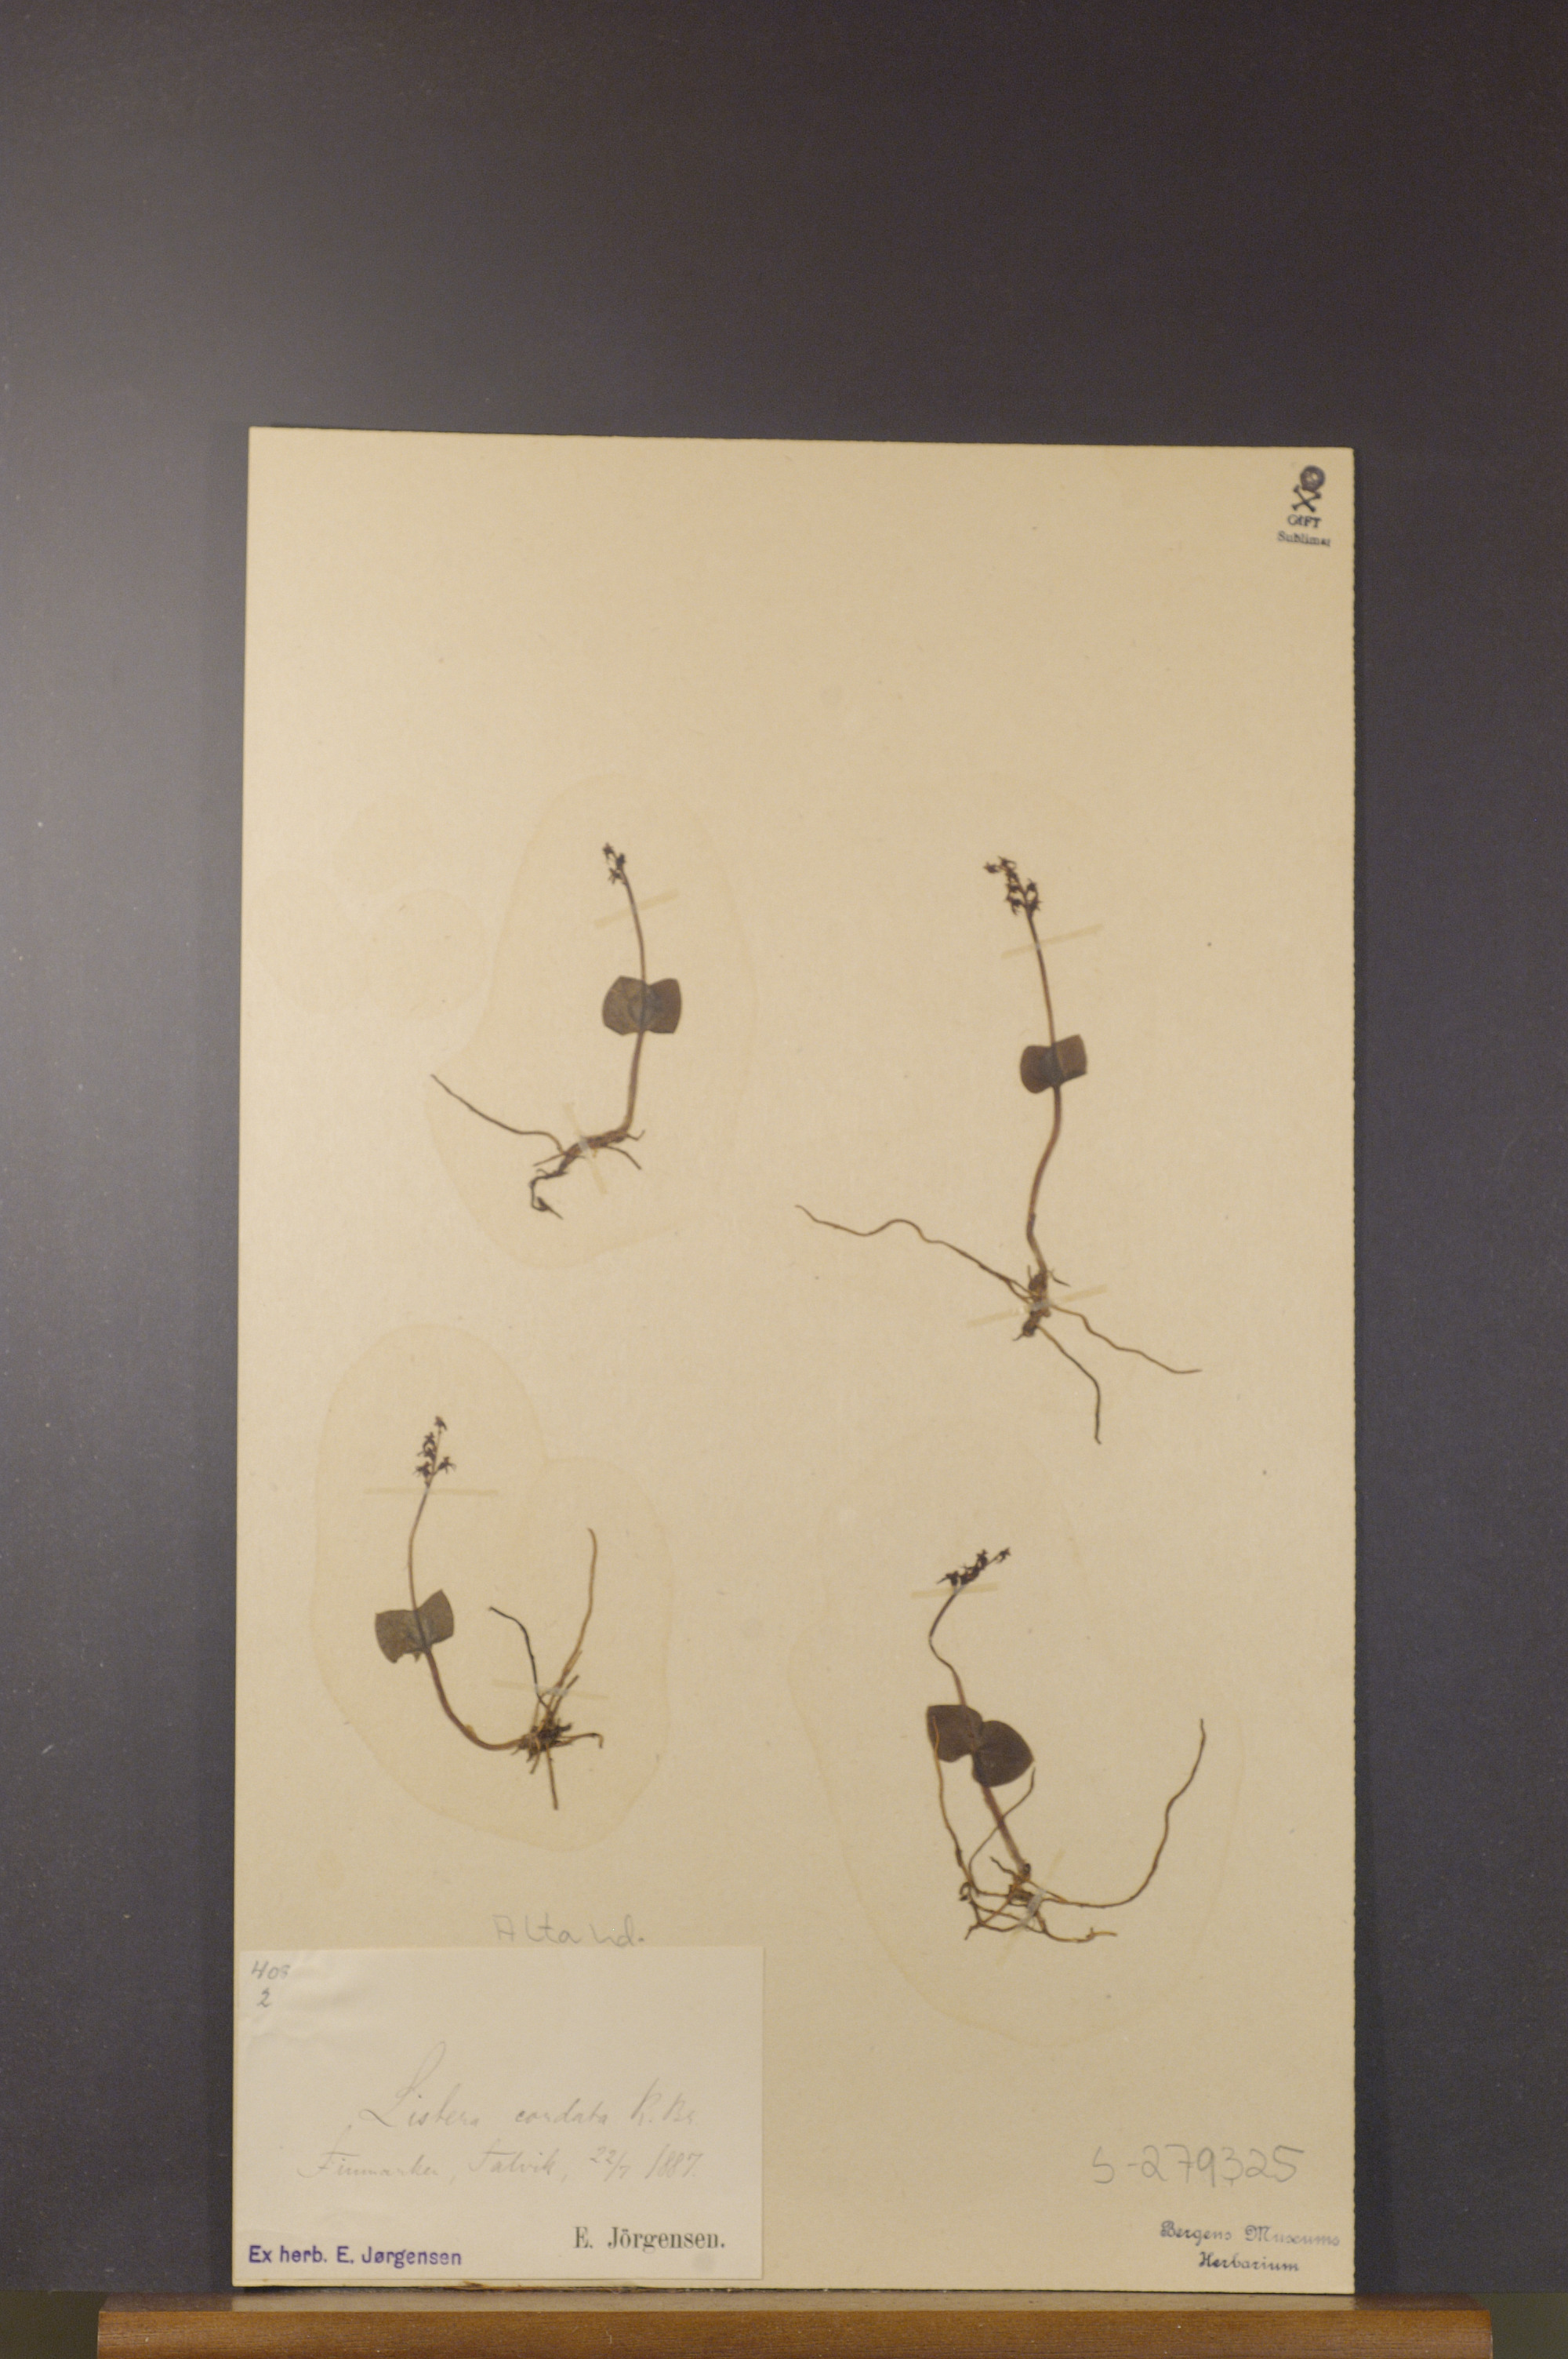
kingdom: Plantae
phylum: Tracheophyta
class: Liliopsida
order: Asparagales
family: Orchidaceae
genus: Neottia
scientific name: Neottia cordata
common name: Lesser twayblade
